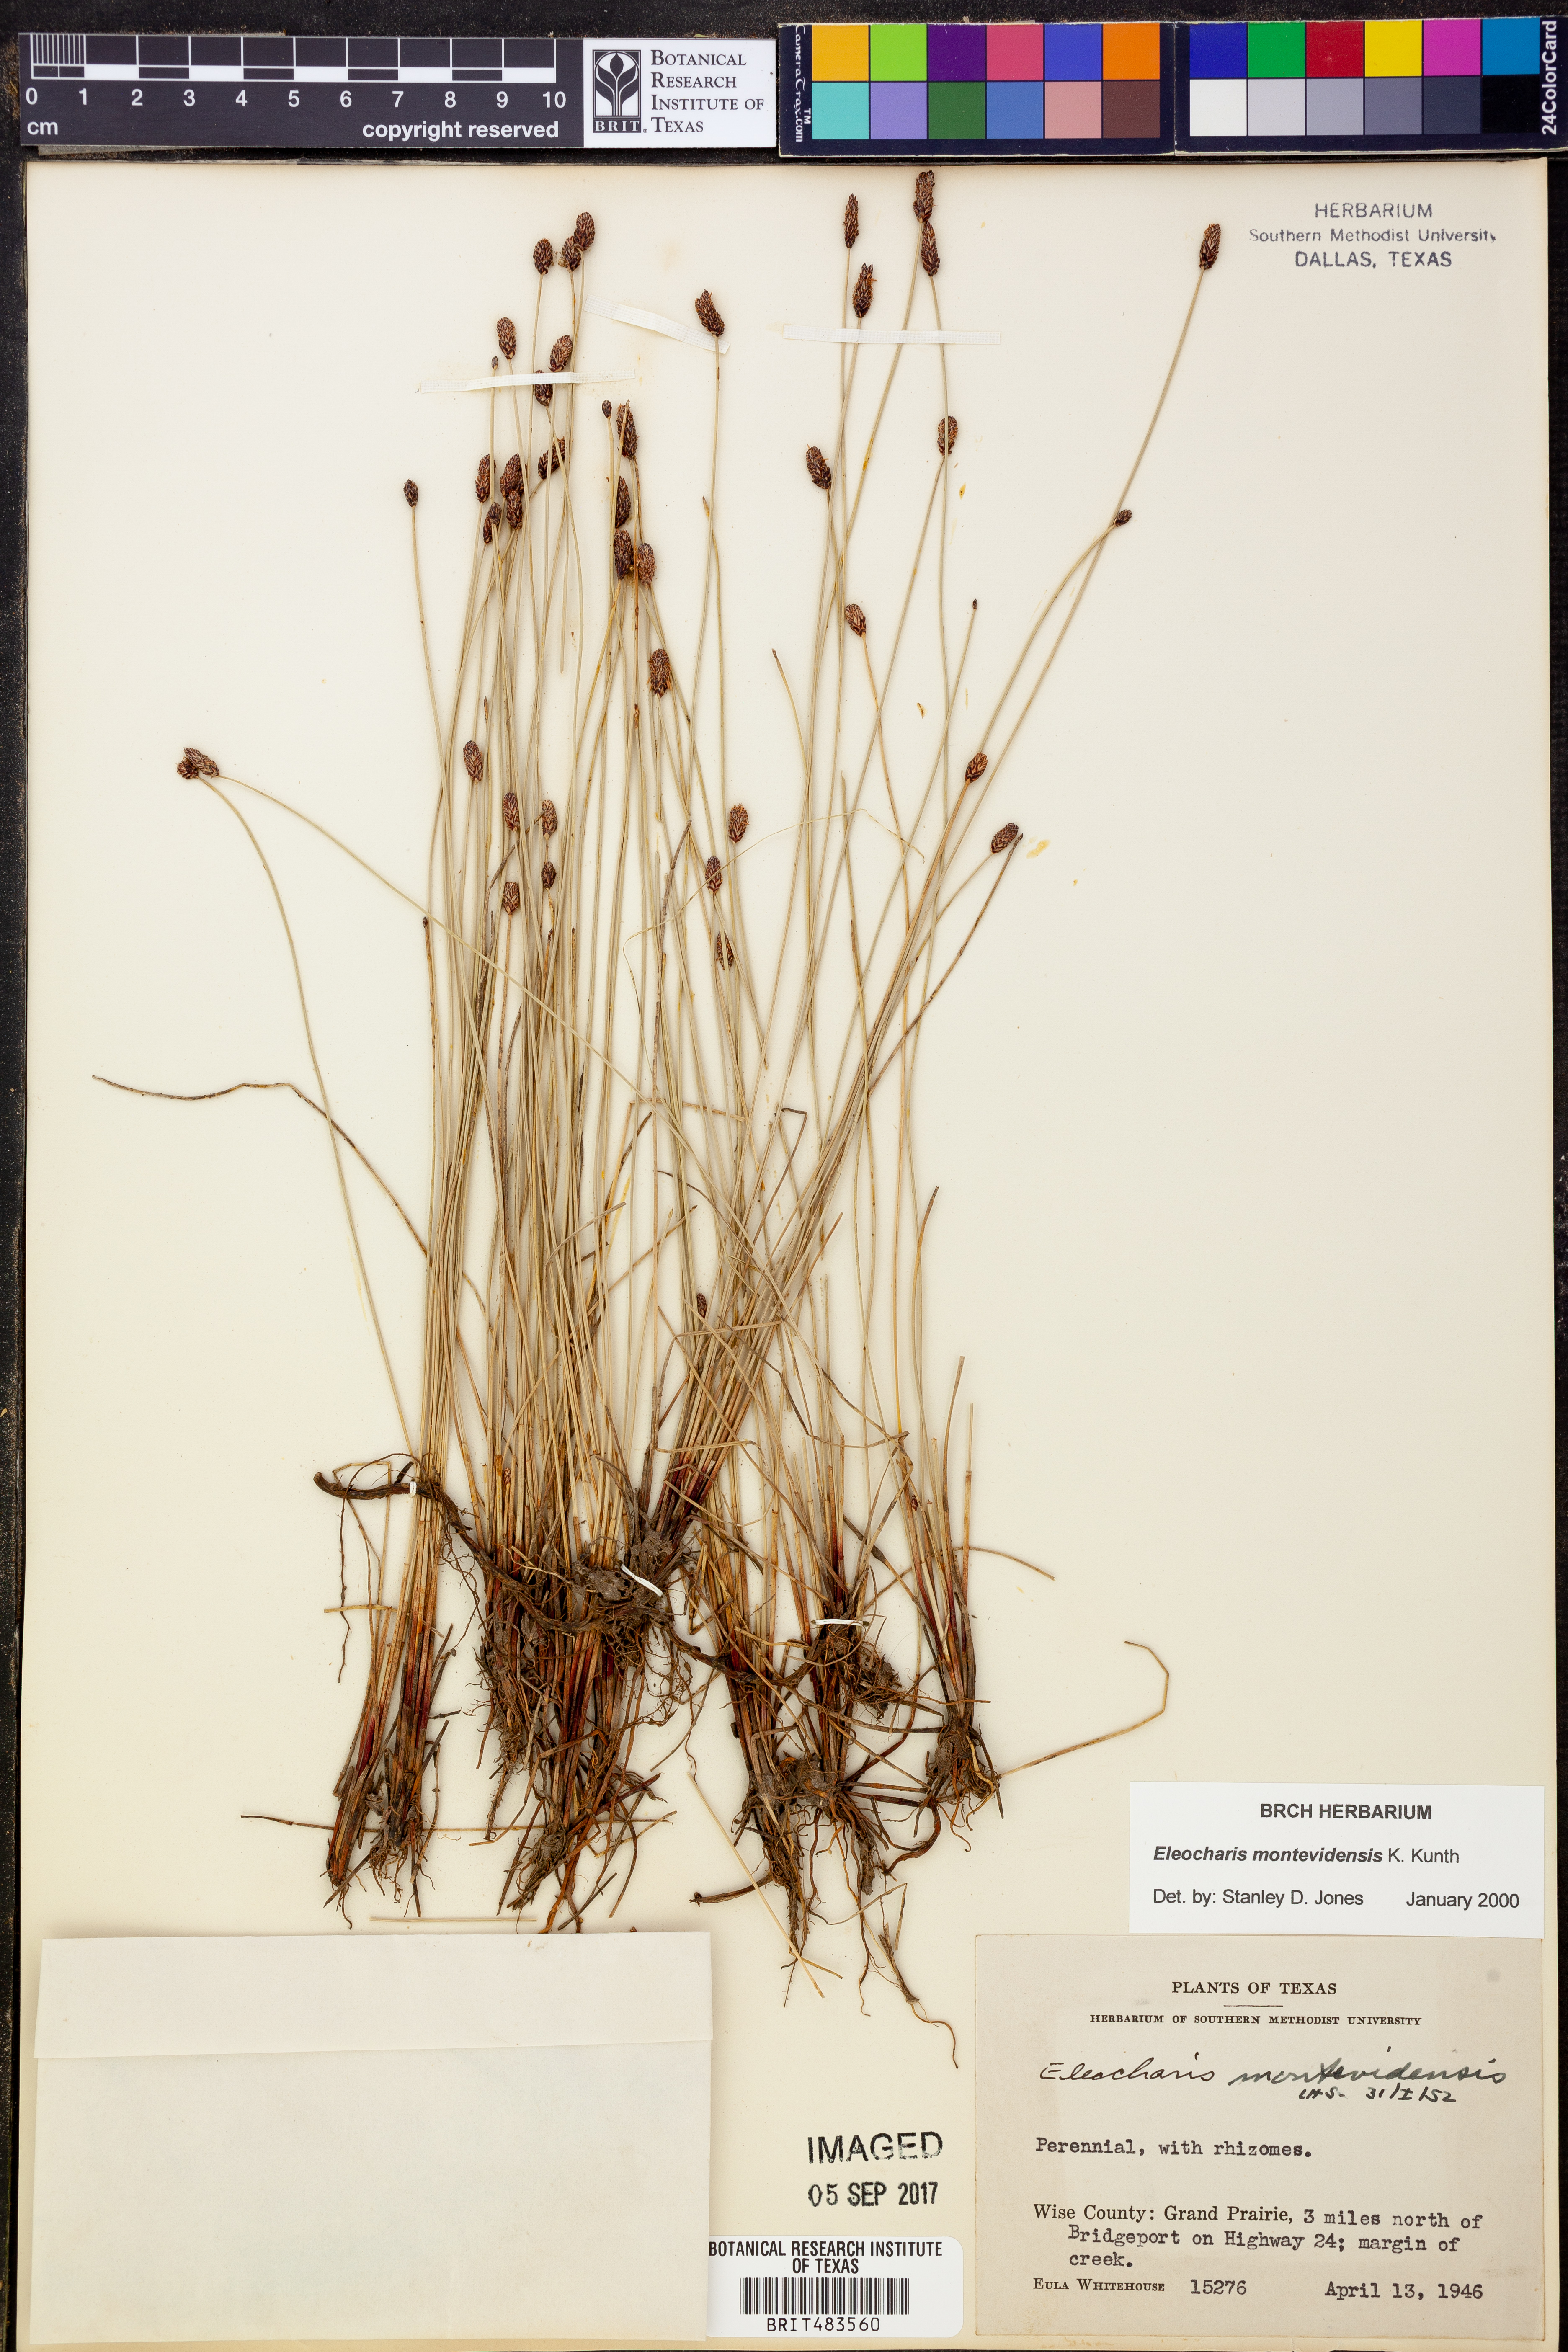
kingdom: Plantae
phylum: Tracheophyta
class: Liliopsida
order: Poales
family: Cyperaceae
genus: Eleocharis
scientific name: Eleocharis montevidensis
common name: Sand spike-rush
